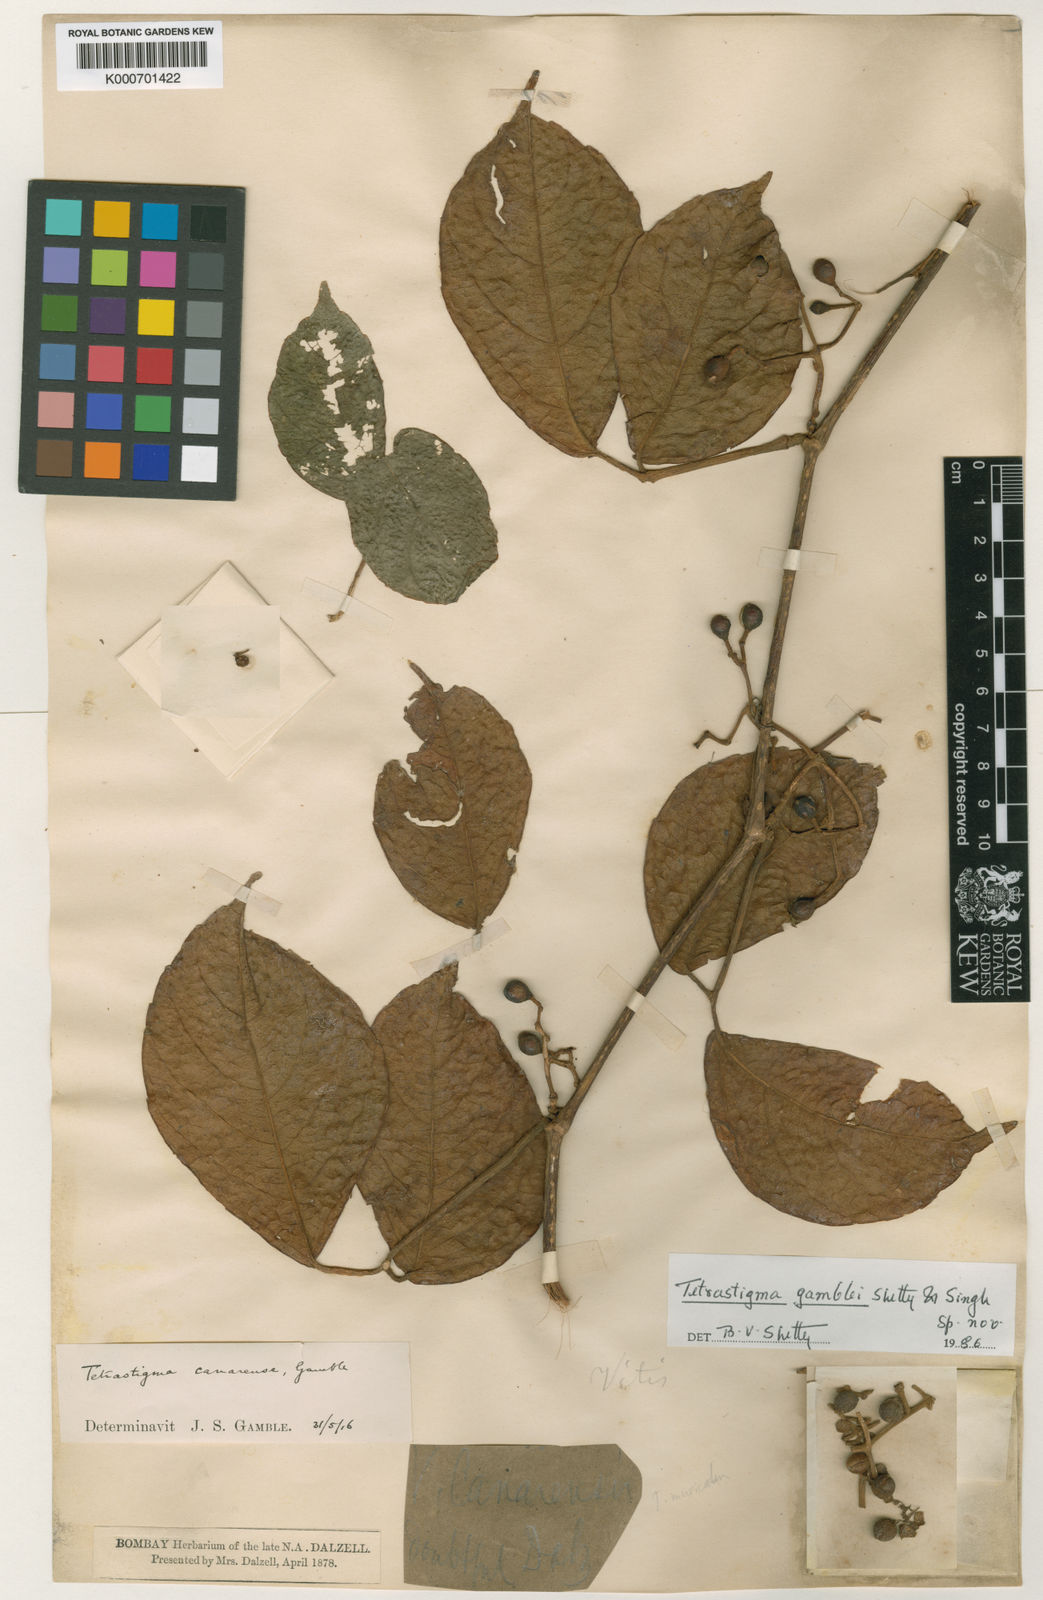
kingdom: Plantae
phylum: Tracheophyta
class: Magnoliopsida
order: Vitales
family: Vitaceae
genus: Tetrastigma
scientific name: Tetrastigma gamblei
